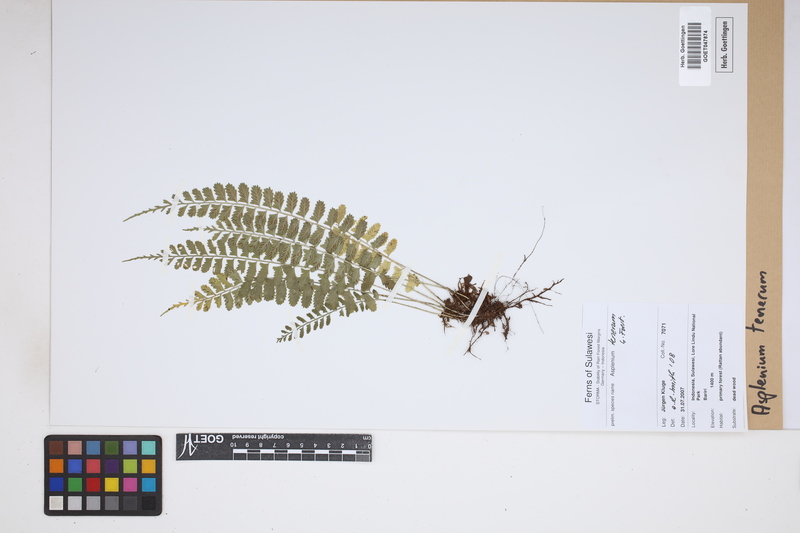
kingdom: Plantae
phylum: Tracheophyta
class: Polypodiopsida
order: Polypodiales
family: Aspleniaceae
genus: Asplenium
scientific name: Asplenium tenerum
